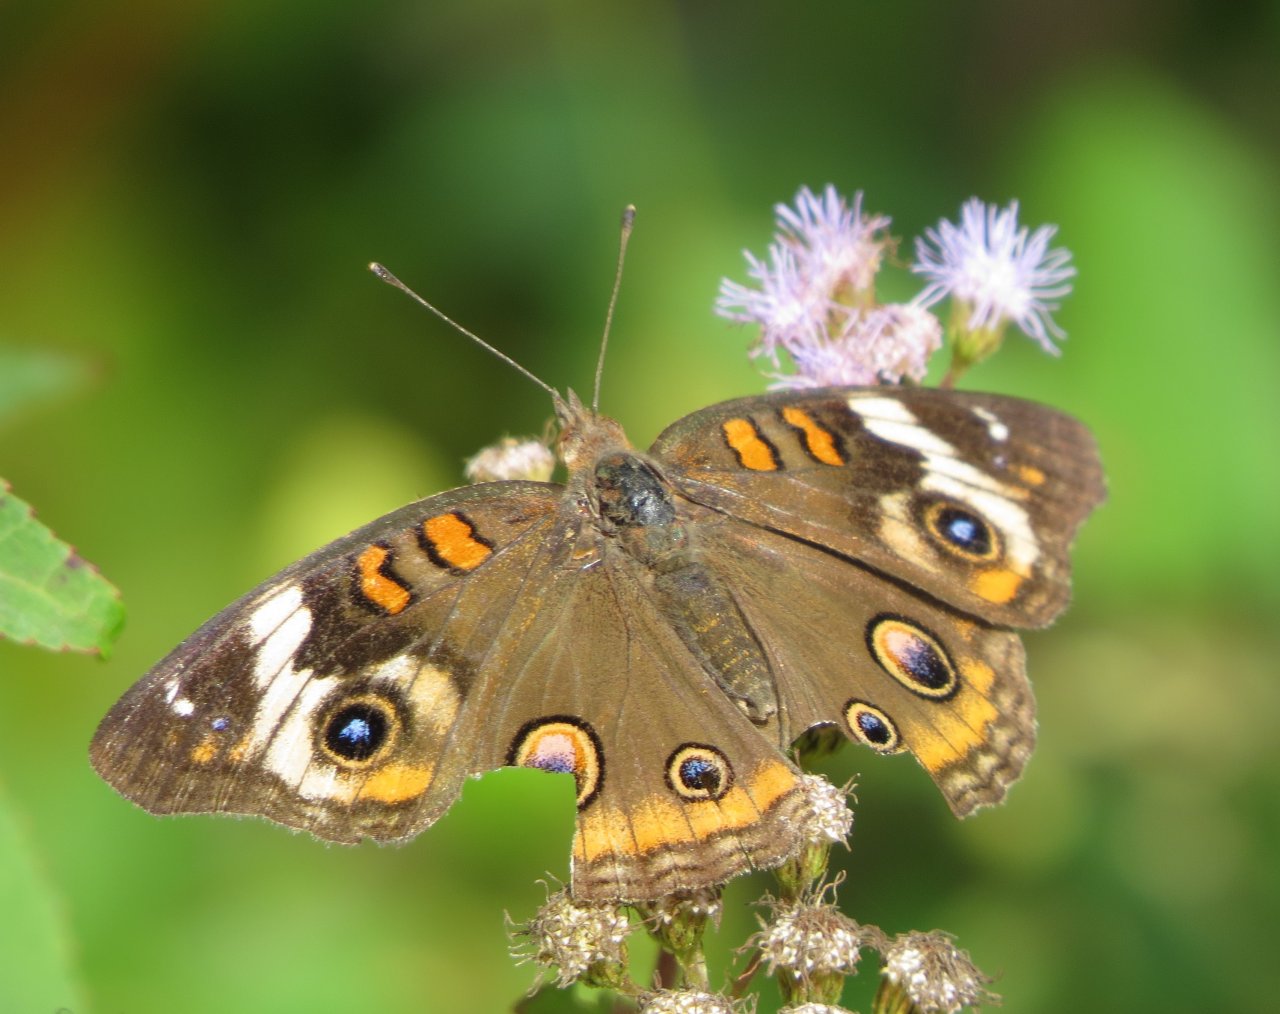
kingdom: Animalia
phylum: Arthropoda
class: Insecta
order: Lepidoptera
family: Nymphalidae
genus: Junonia
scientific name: Junonia coenia
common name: Common Buckeye
